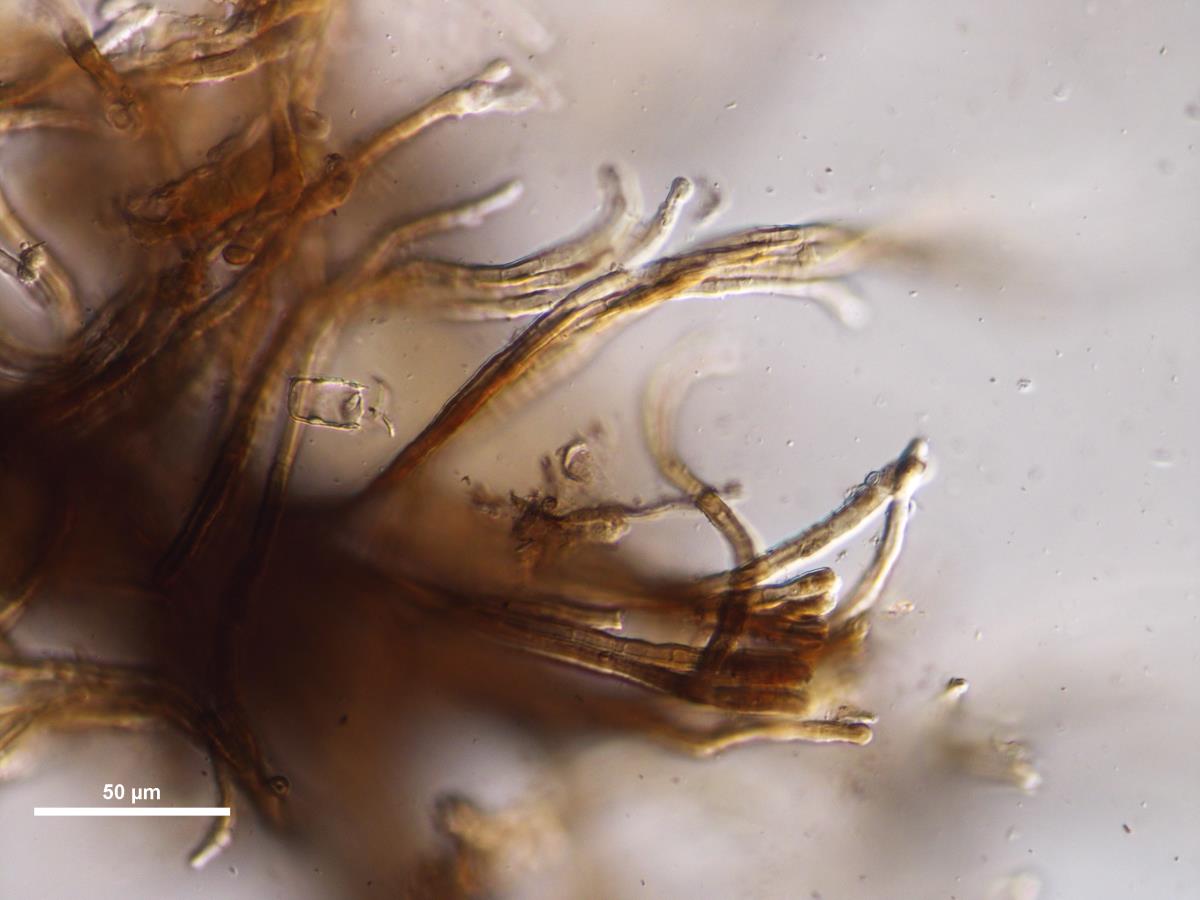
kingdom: Fungi
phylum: Basidiomycota
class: Agaricomycetes
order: Agaricales
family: Pleurotaceae
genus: Pleurotus
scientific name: Pleurotus purpureo-olivaceus
